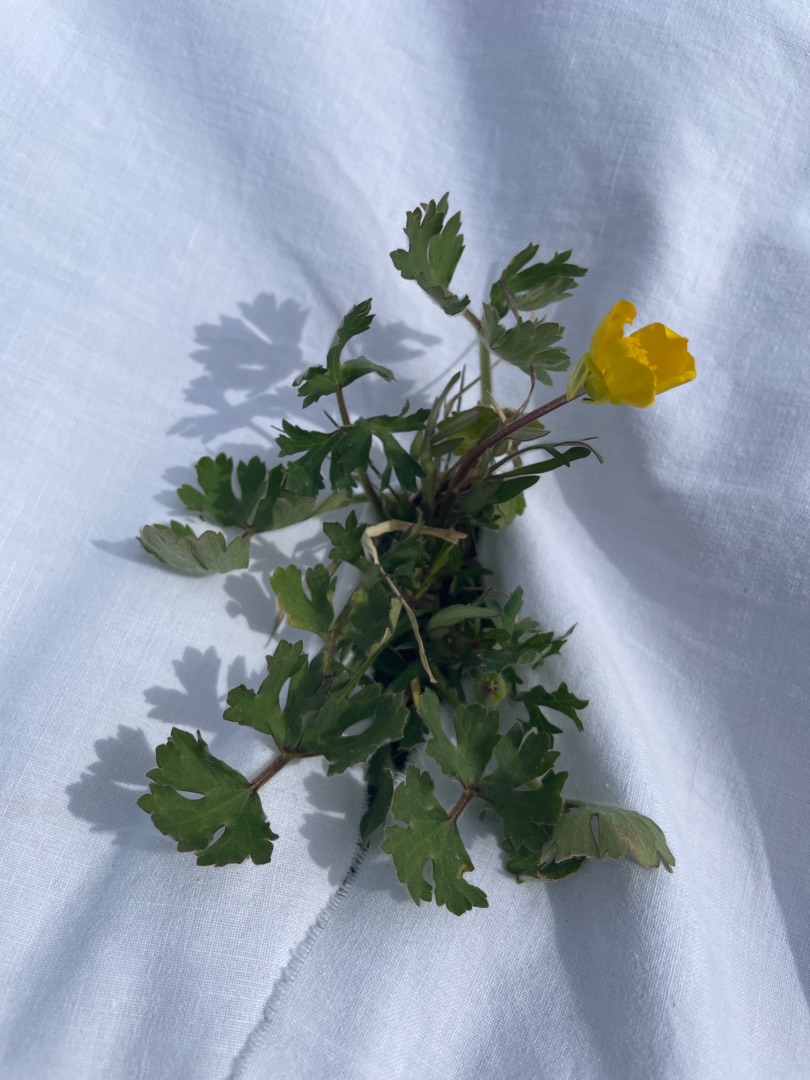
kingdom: Plantae
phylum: Tracheophyta
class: Magnoliopsida
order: Ranunculales
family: Ranunculaceae
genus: Ranunculus
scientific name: Ranunculus bulbosus
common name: Knold-ranunkel
